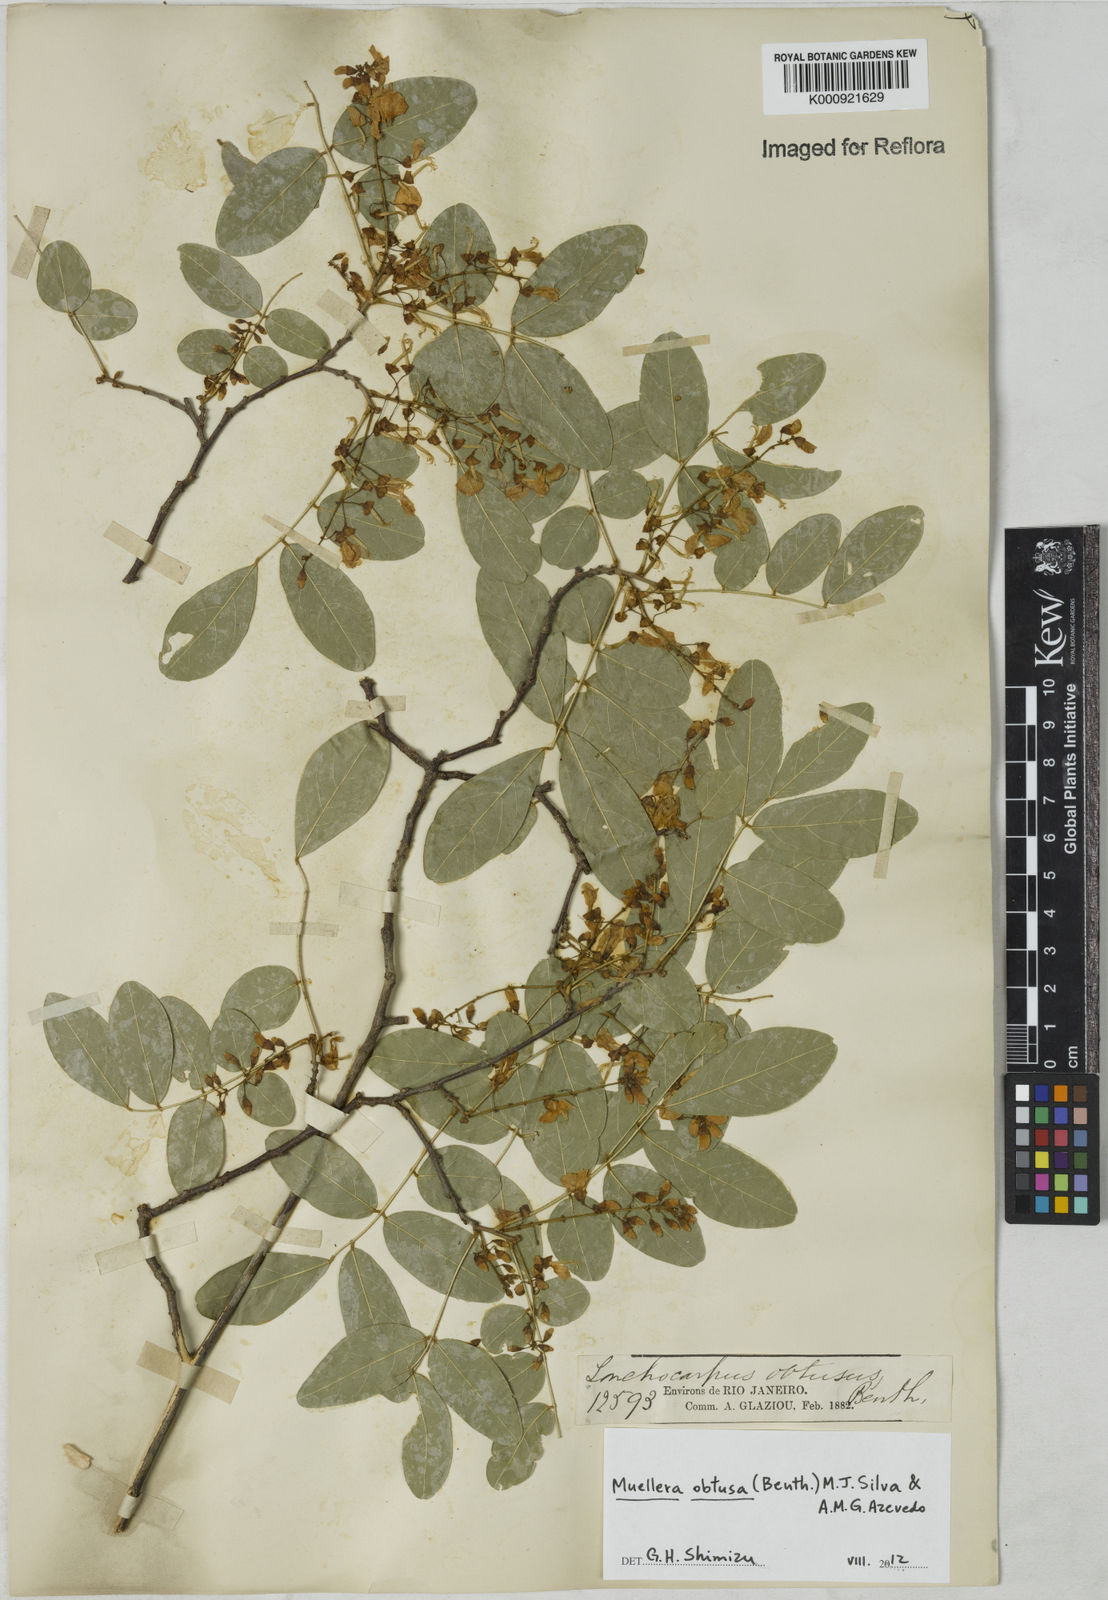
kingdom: Plantae
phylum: Tracheophyta
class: Magnoliopsida
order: Fabales
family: Fabaceae
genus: Muellera
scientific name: Muellera obtusa
